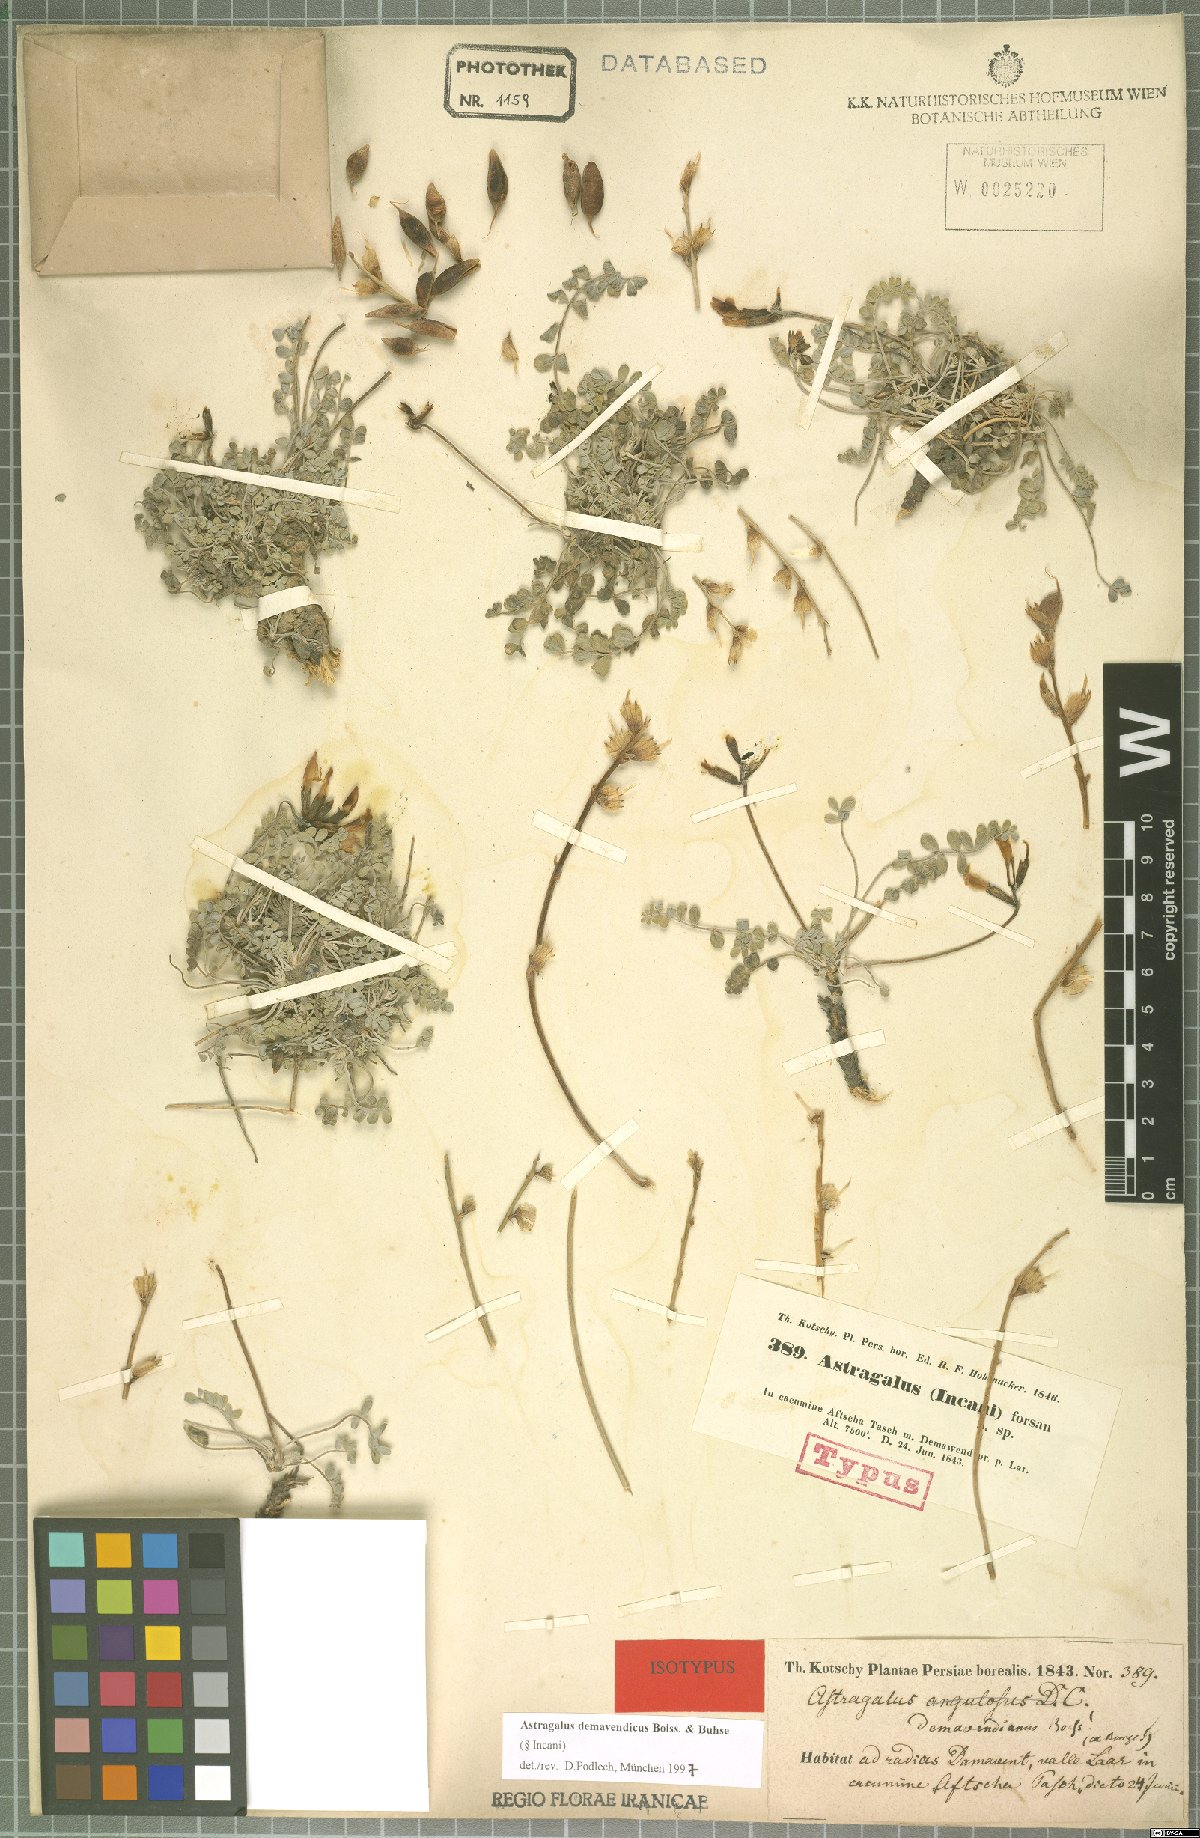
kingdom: Plantae
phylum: Tracheophyta
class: Magnoliopsida
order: Fabales
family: Fabaceae
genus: Astragalus
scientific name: Astragalus demavendicus
